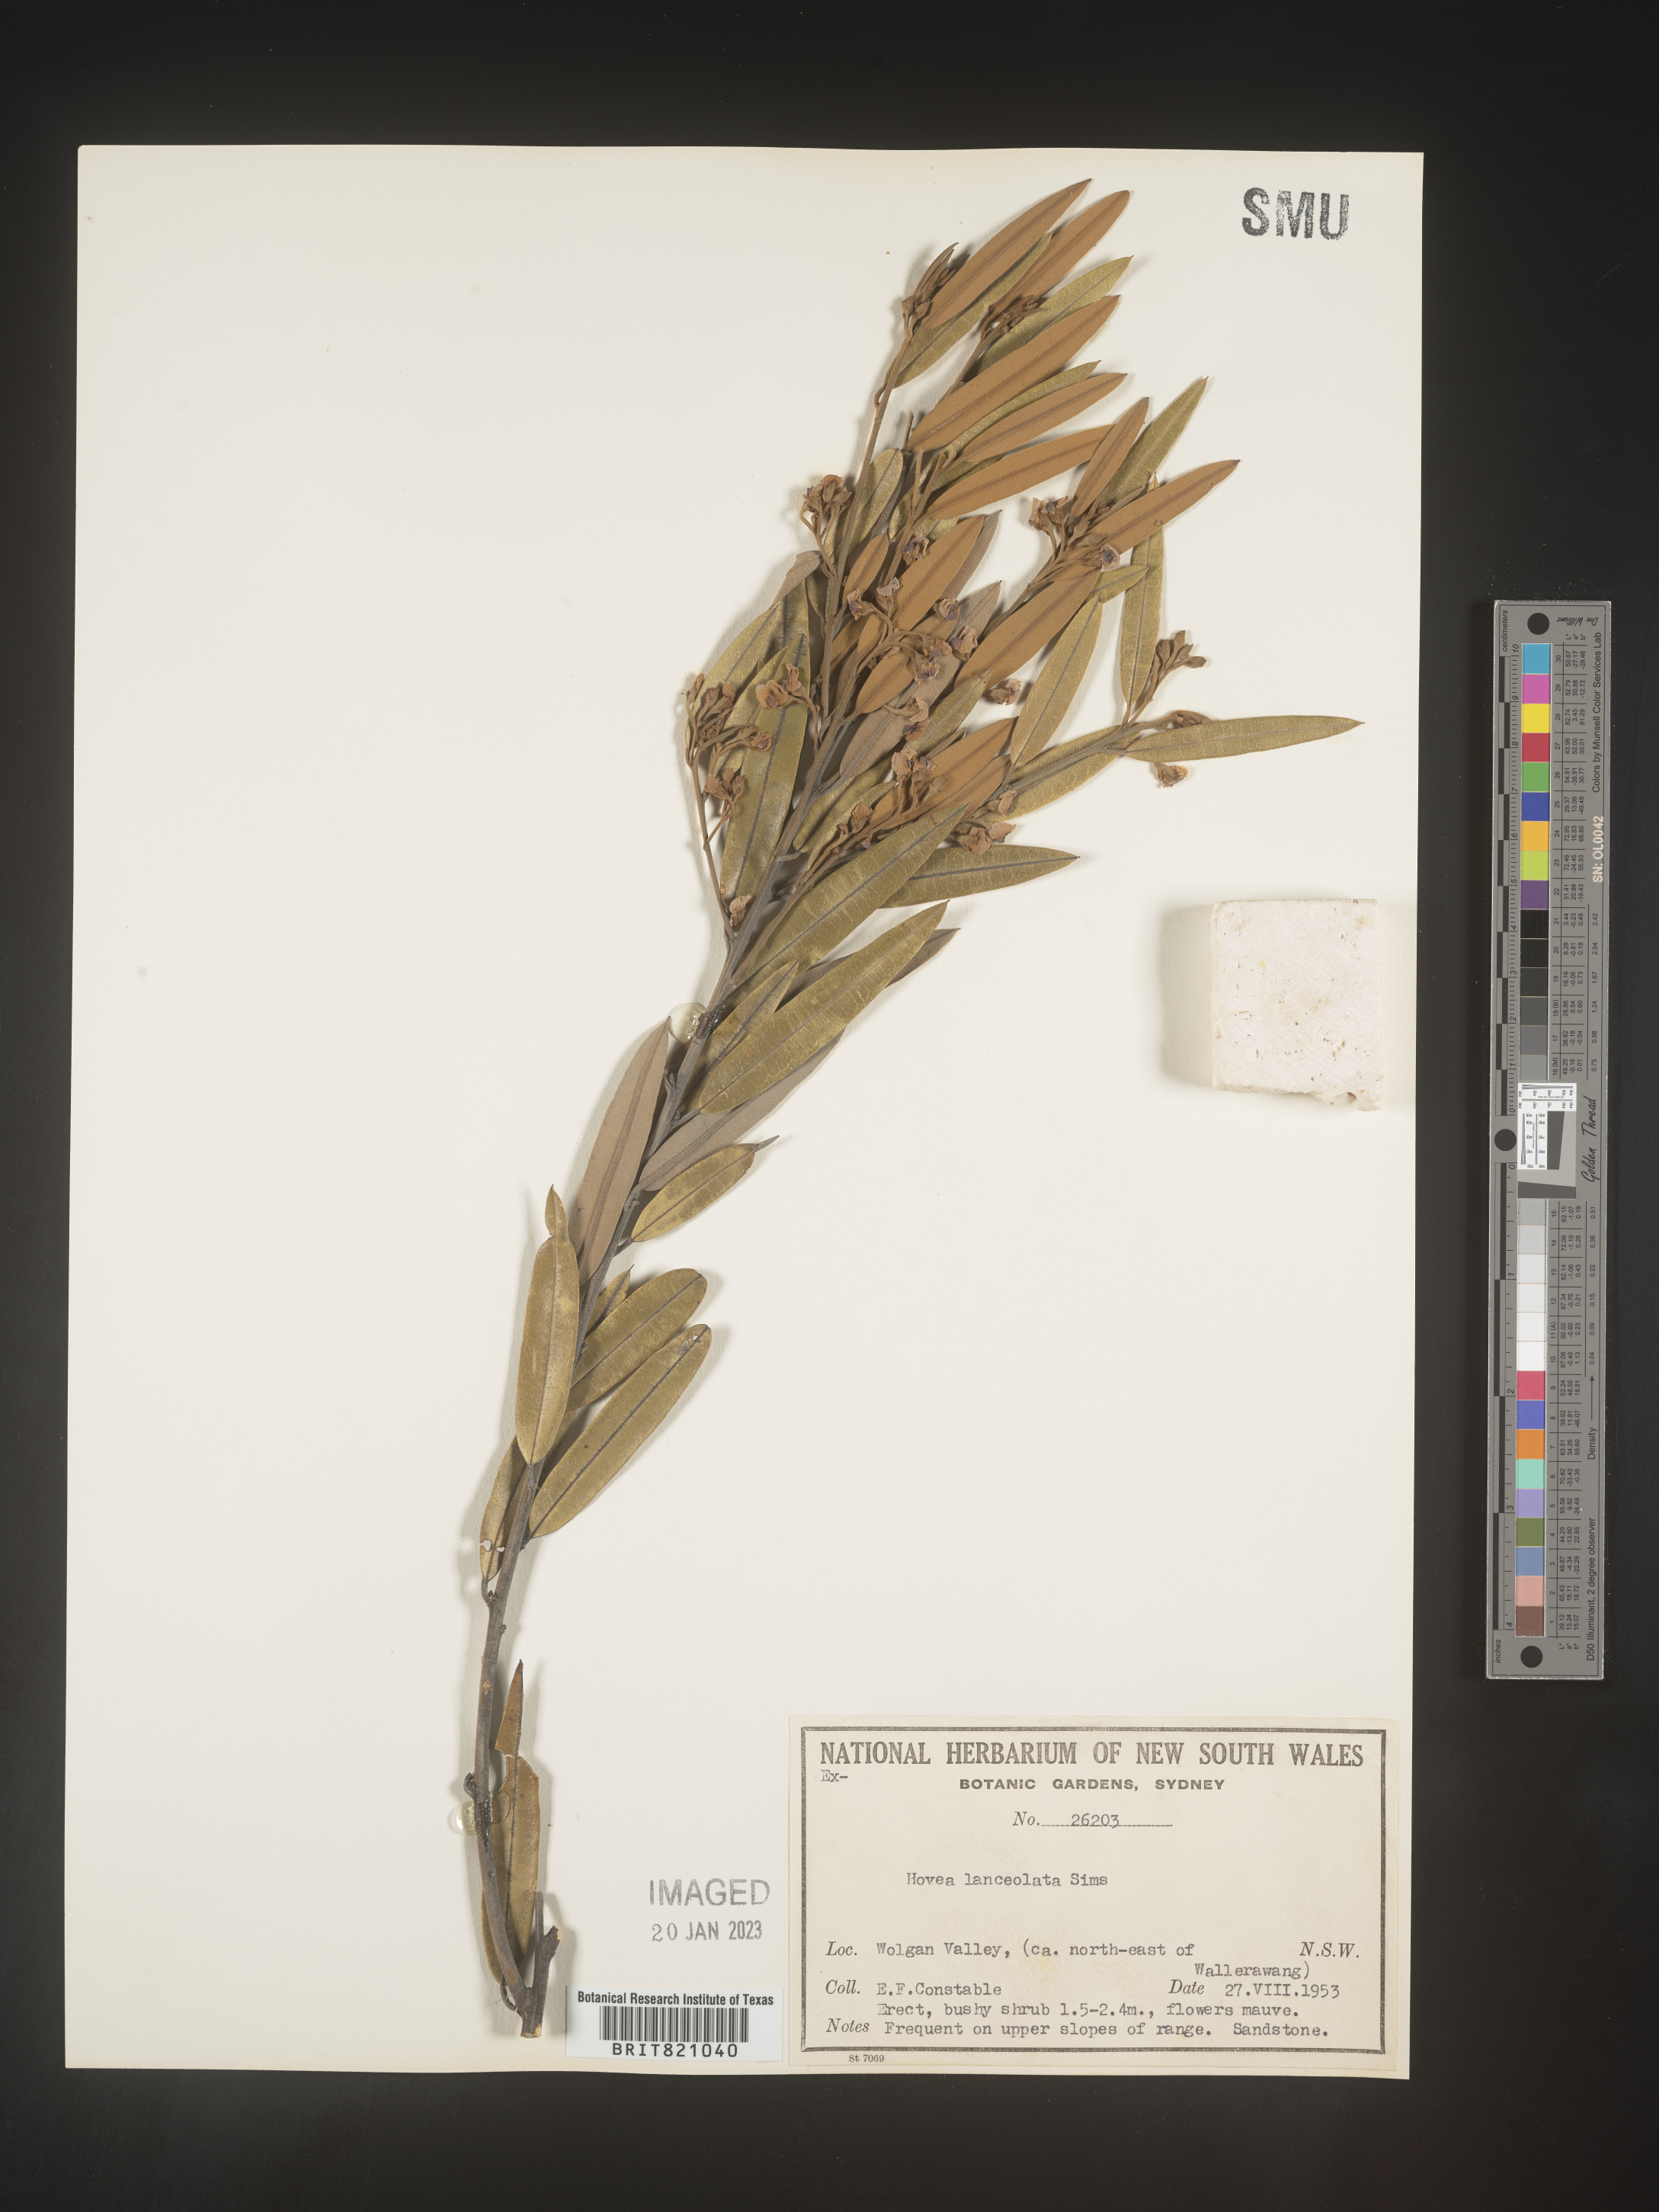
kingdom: Plantae
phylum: Tracheophyta
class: Magnoliopsida
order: Fabales
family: Fabaceae
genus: Hovea
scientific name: Hovea
